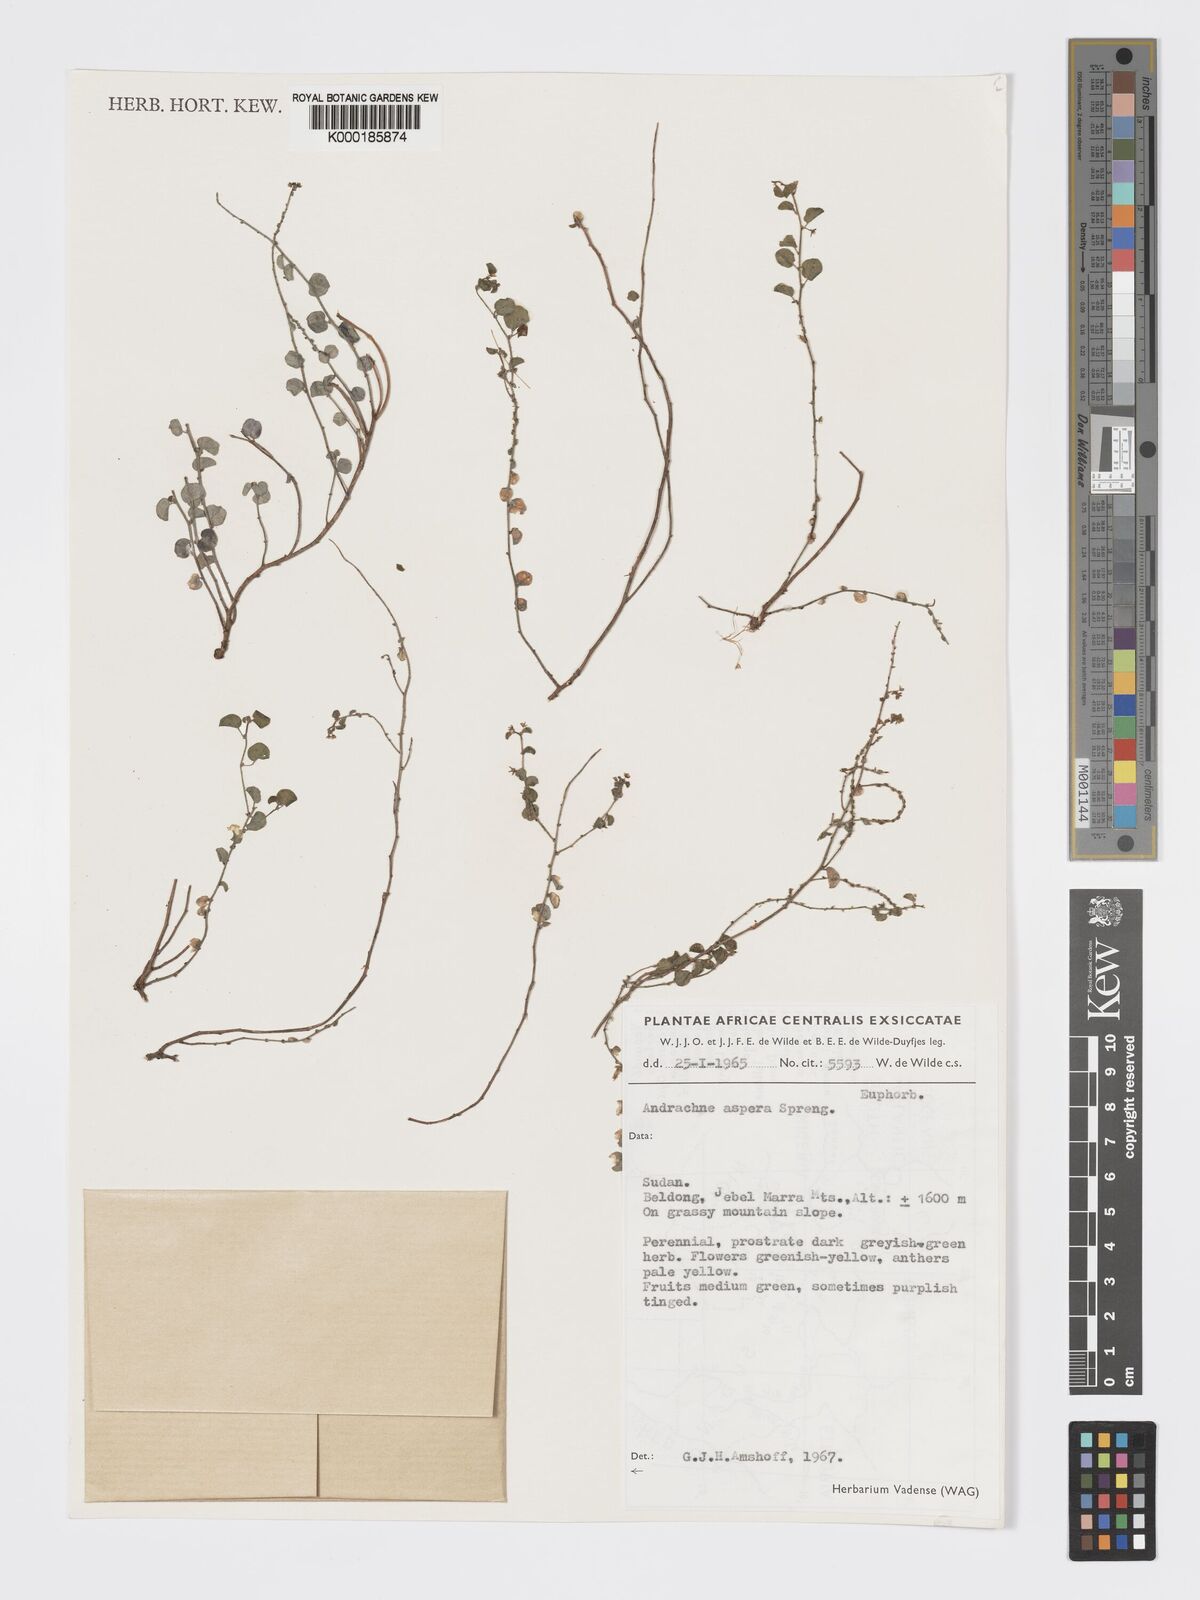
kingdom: Plantae
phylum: Tracheophyta
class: Magnoliopsida
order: Malpighiales
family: Phyllanthaceae
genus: Andrachne
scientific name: Andrachne aspera
